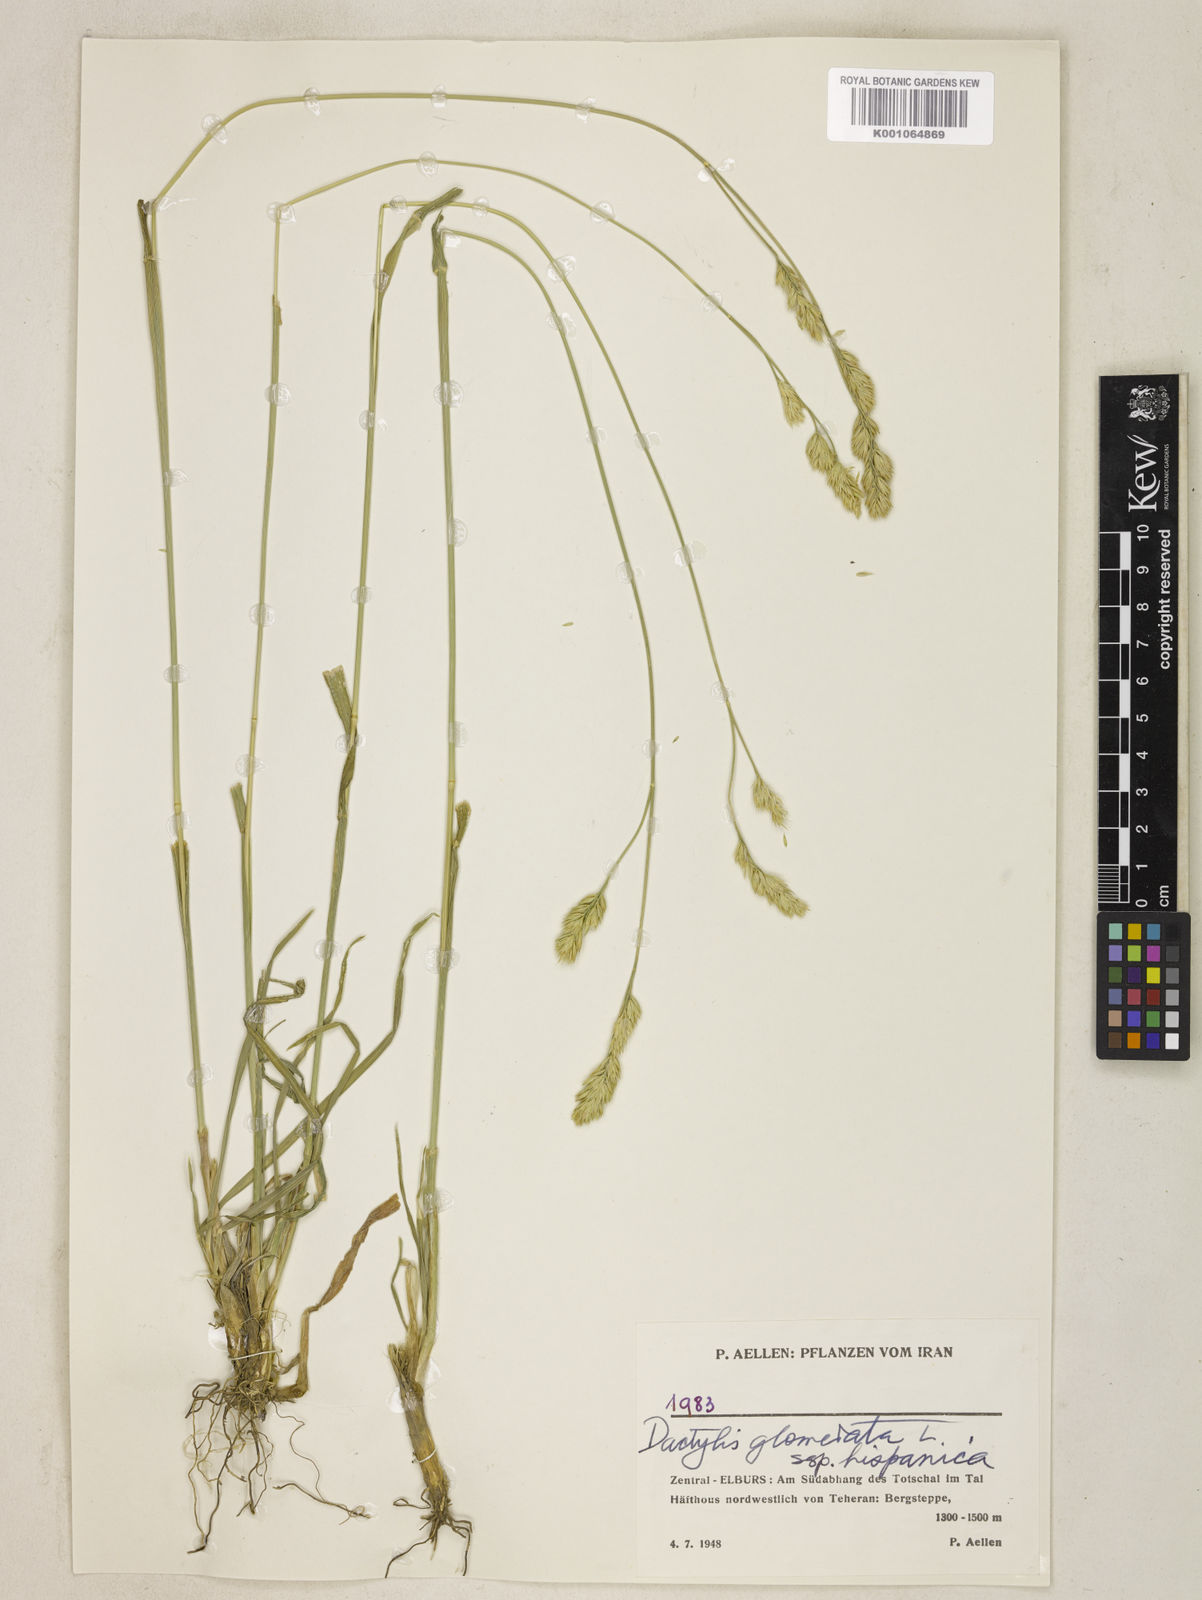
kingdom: Plantae
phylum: Tracheophyta
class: Liliopsida
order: Poales
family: Poaceae
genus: Dactylis
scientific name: Dactylis glomerata
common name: Orchardgrass
